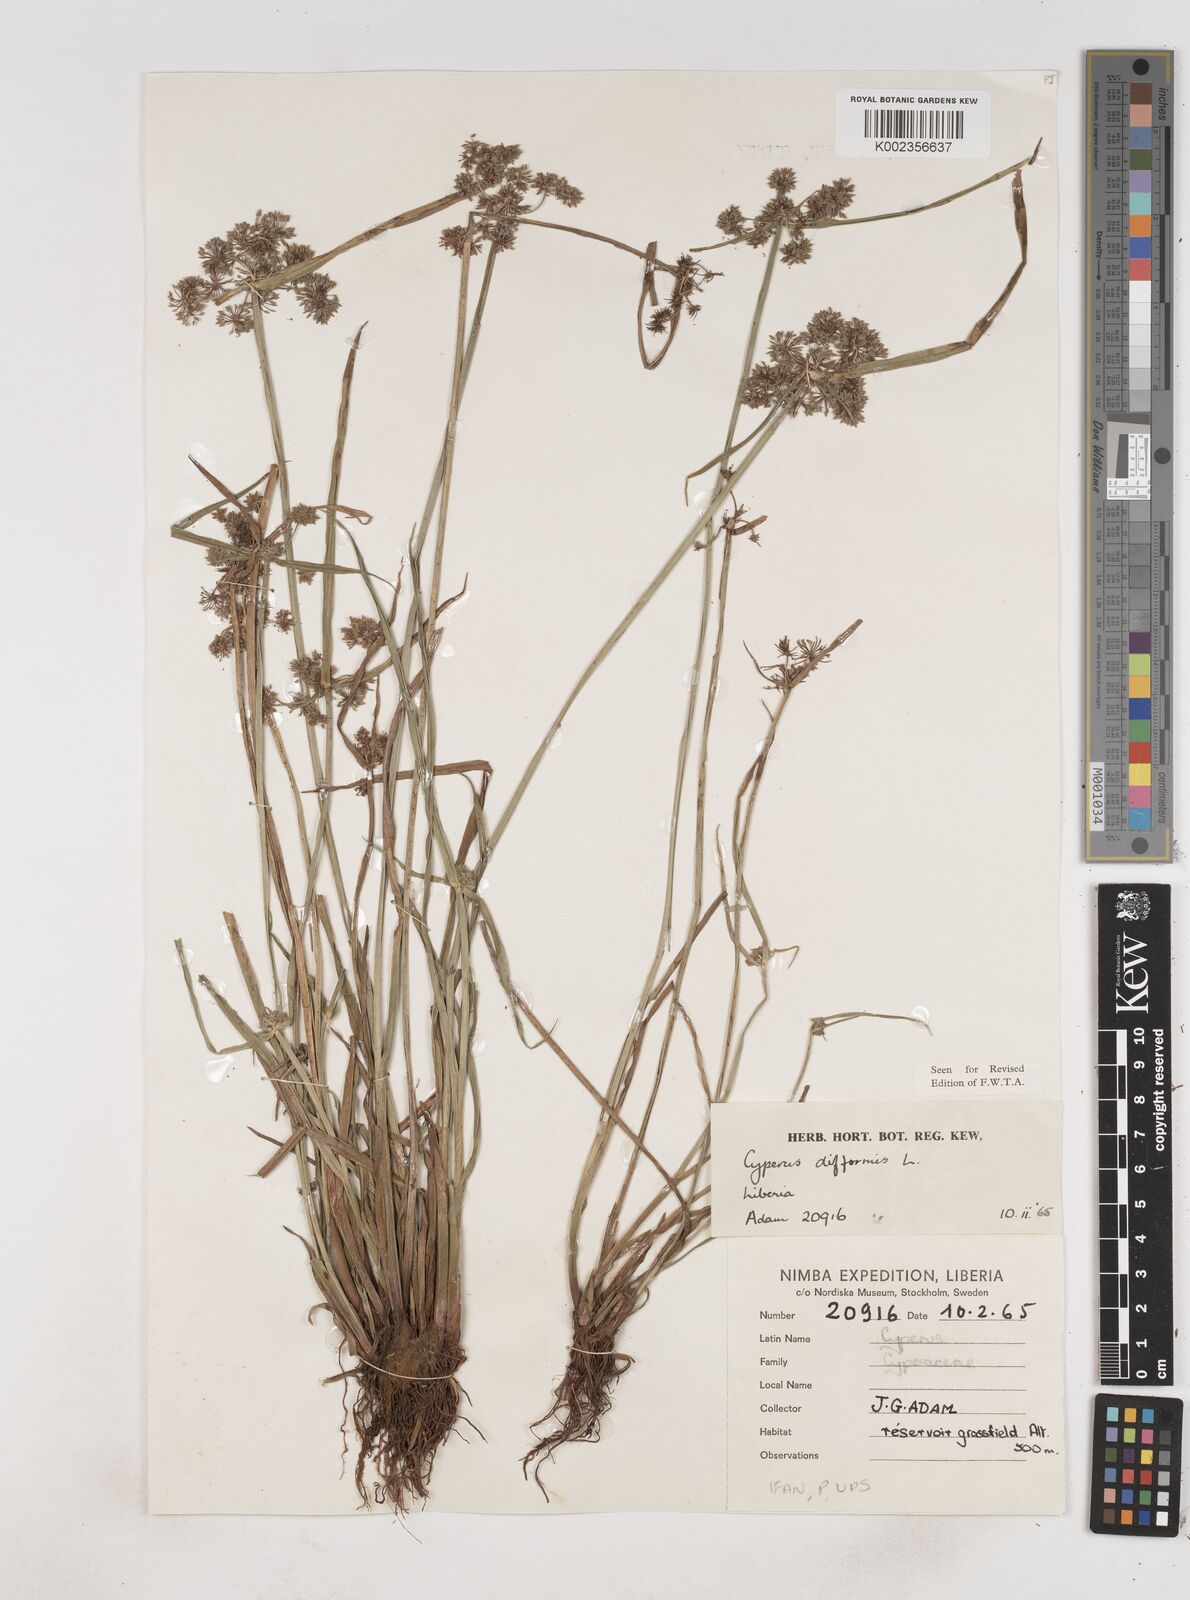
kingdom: Plantae
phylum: Tracheophyta
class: Liliopsida
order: Poales
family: Cyperaceae
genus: Cyperus
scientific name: Cyperus difformis
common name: Variable flatsedge
